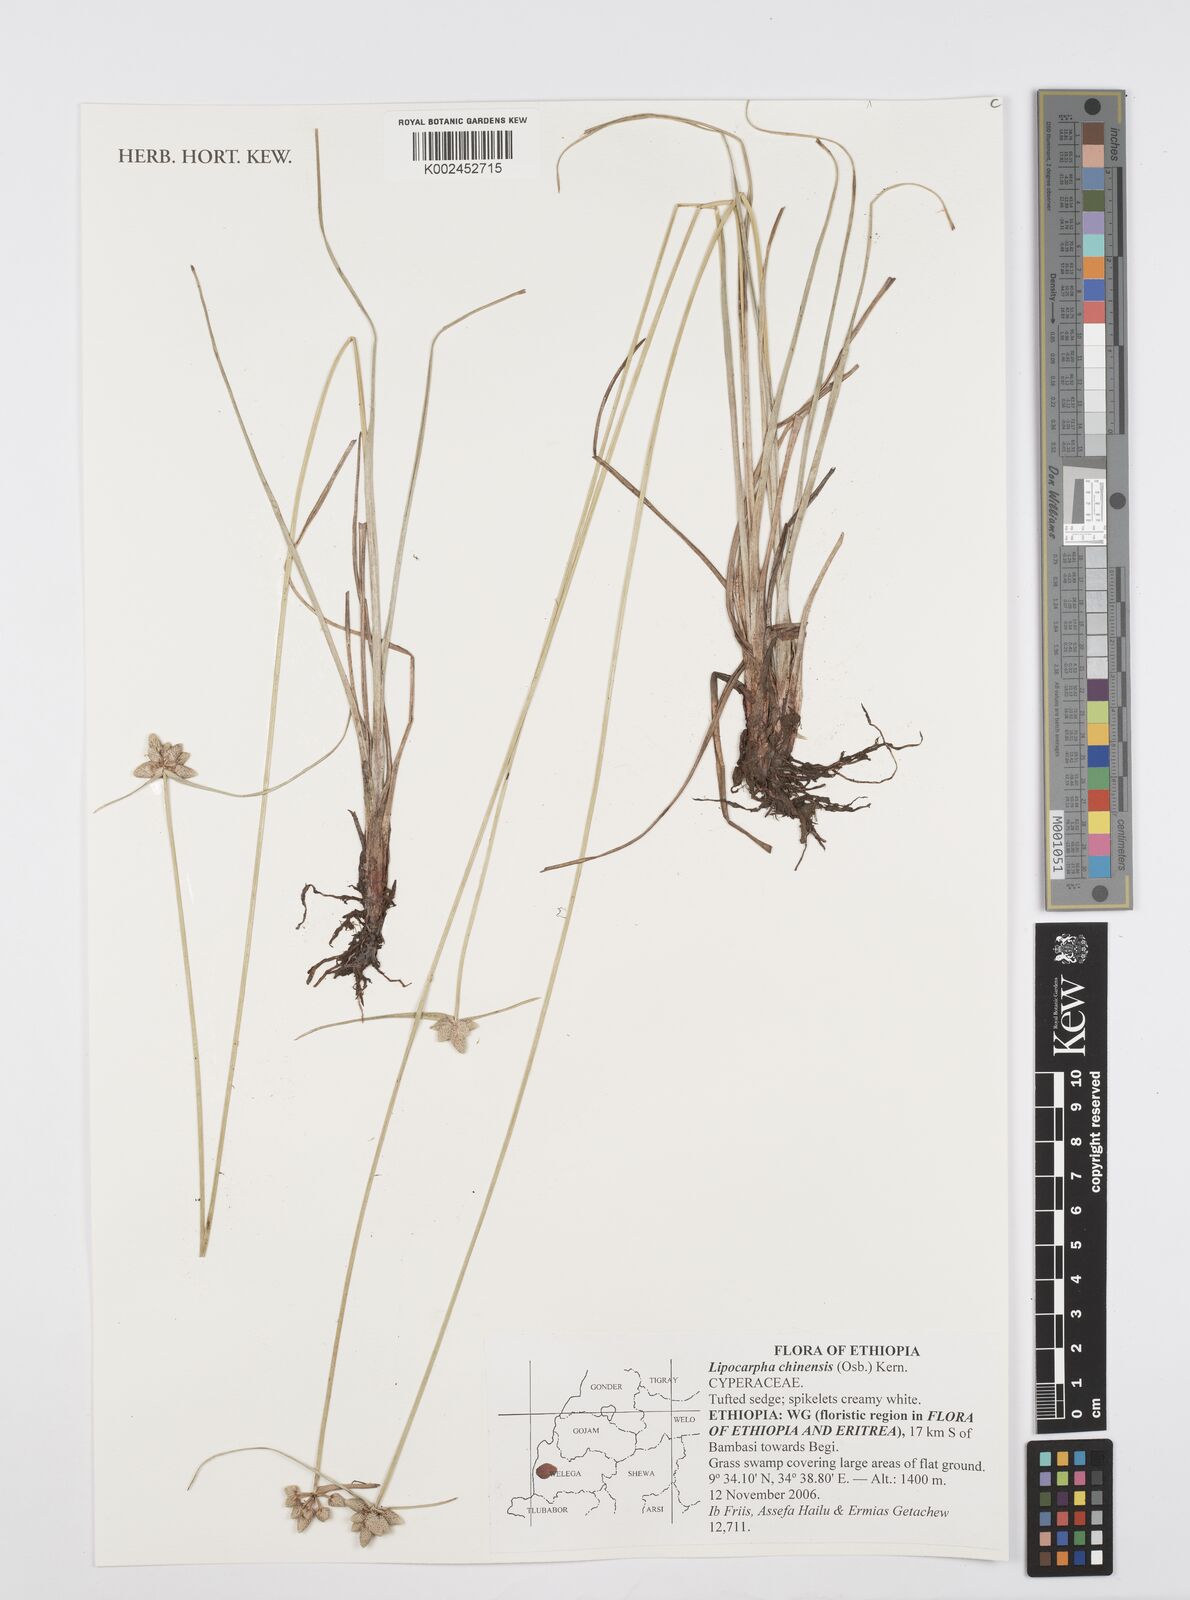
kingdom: Plantae
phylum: Tracheophyta
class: Liliopsida
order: Poales
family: Cyperaceae
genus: Cyperus
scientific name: Cyperus albescens
